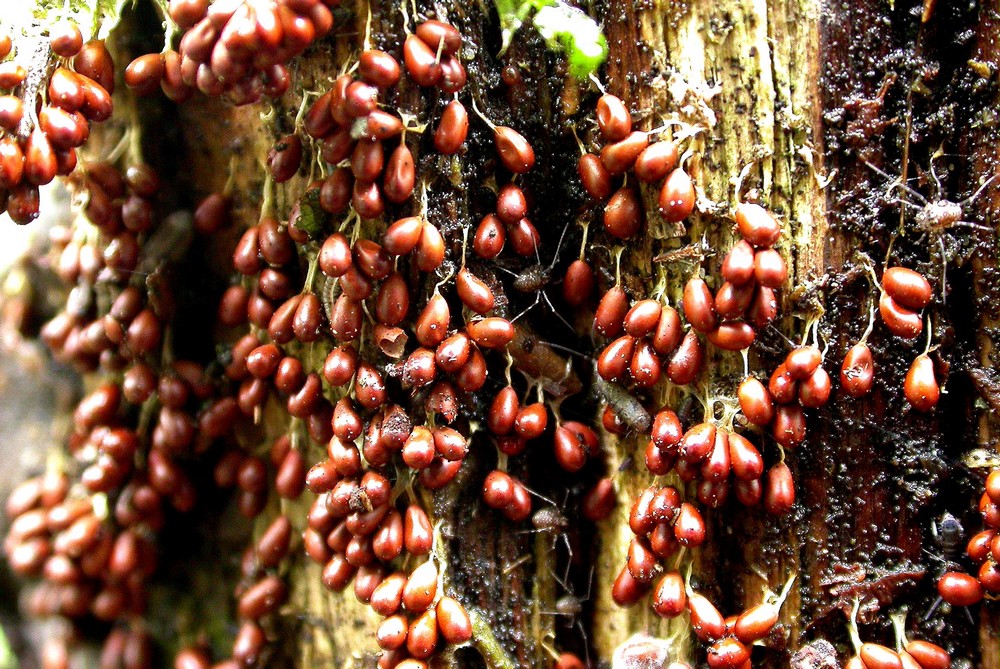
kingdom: Protozoa
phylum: Mycetozoa
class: Myxomycetes
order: Physarales
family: Physaraceae
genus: Leocarpus
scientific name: Leocarpus fragilis
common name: poleret glatfrø
